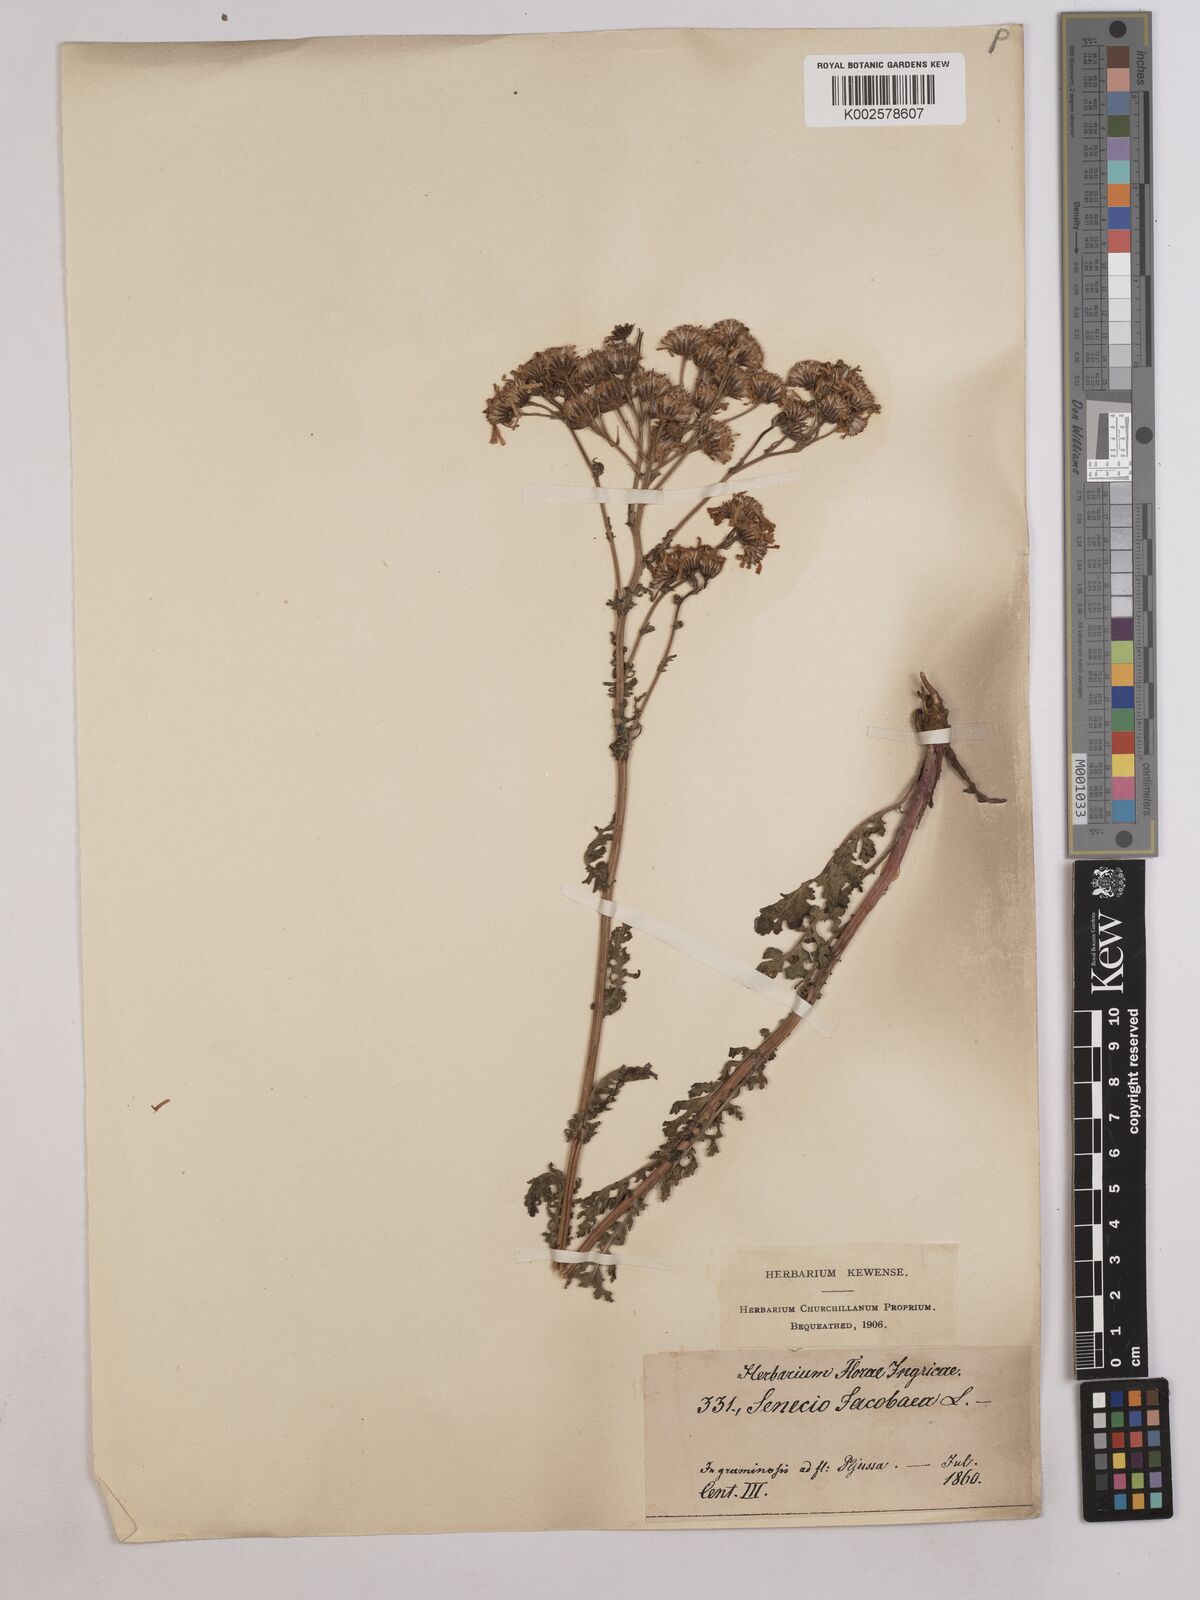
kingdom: Plantae
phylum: Tracheophyta
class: Magnoliopsida
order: Asterales
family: Asteraceae
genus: Jacobaea
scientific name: Jacobaea vulgaris
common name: Stinking willie
